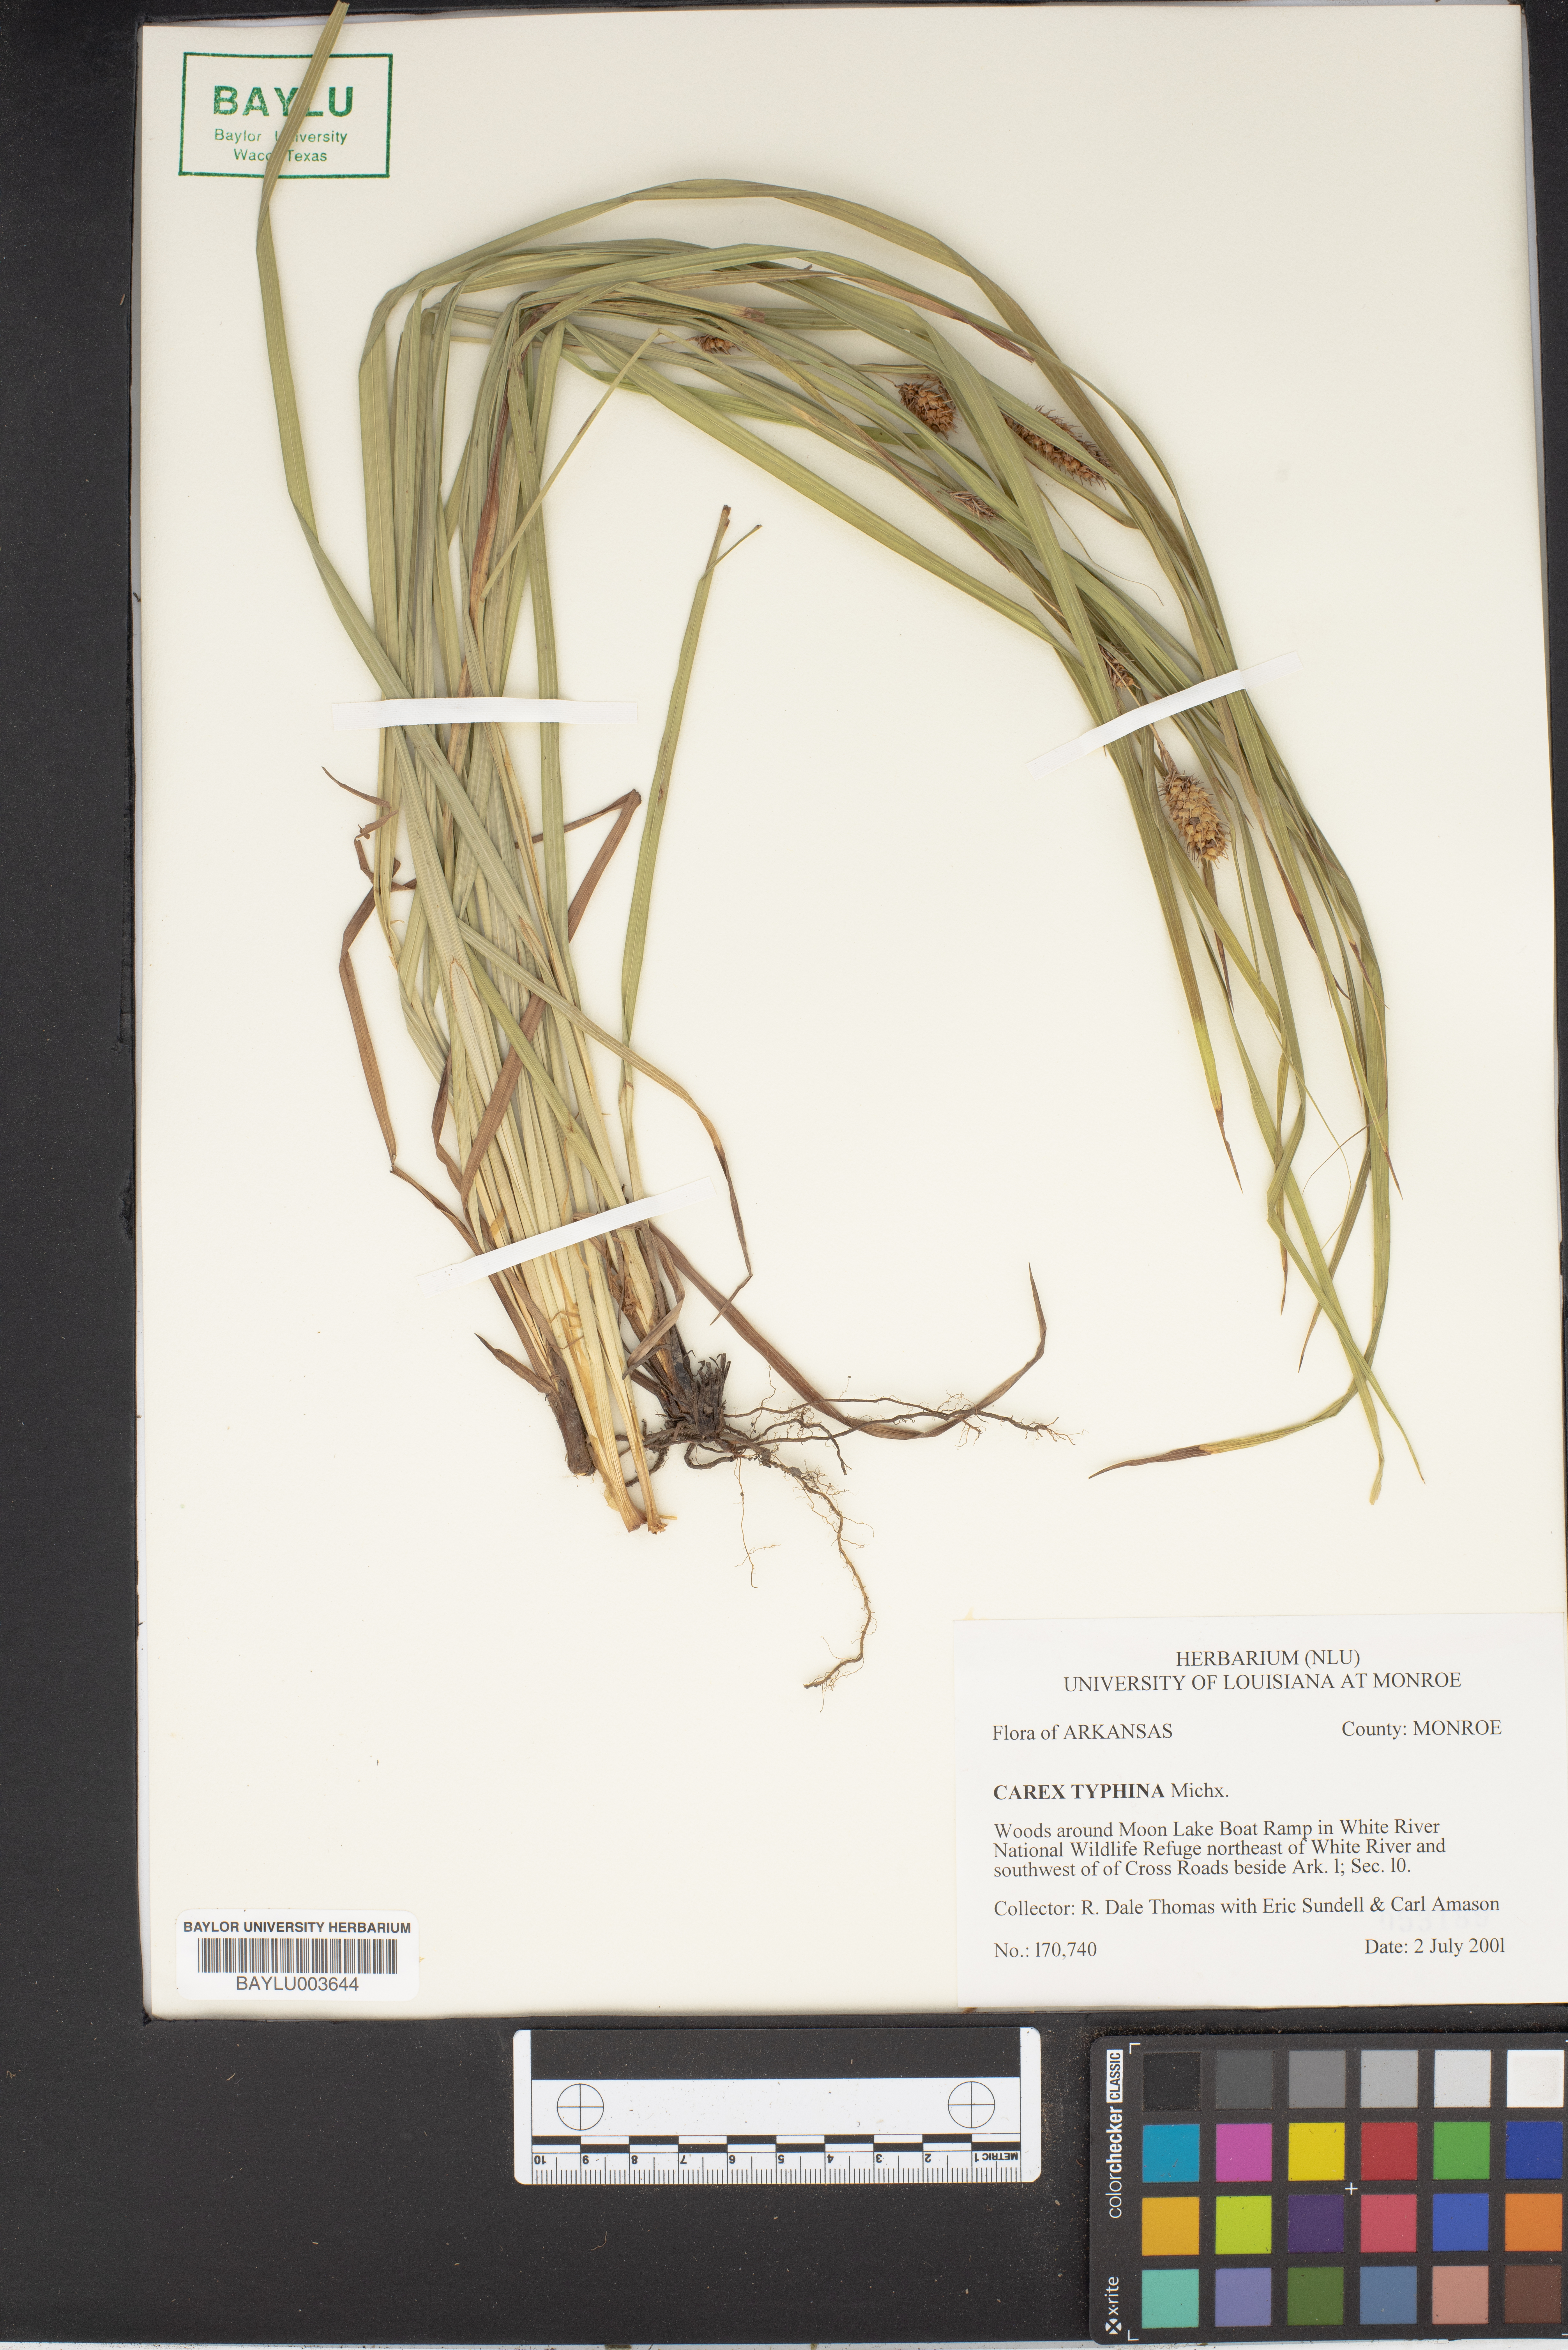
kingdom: Plantae
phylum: Tracheophyta
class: Liliopsida
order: Poales
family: Cyperaceae
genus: Carex
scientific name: Carex typhina
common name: Cattail sedge
